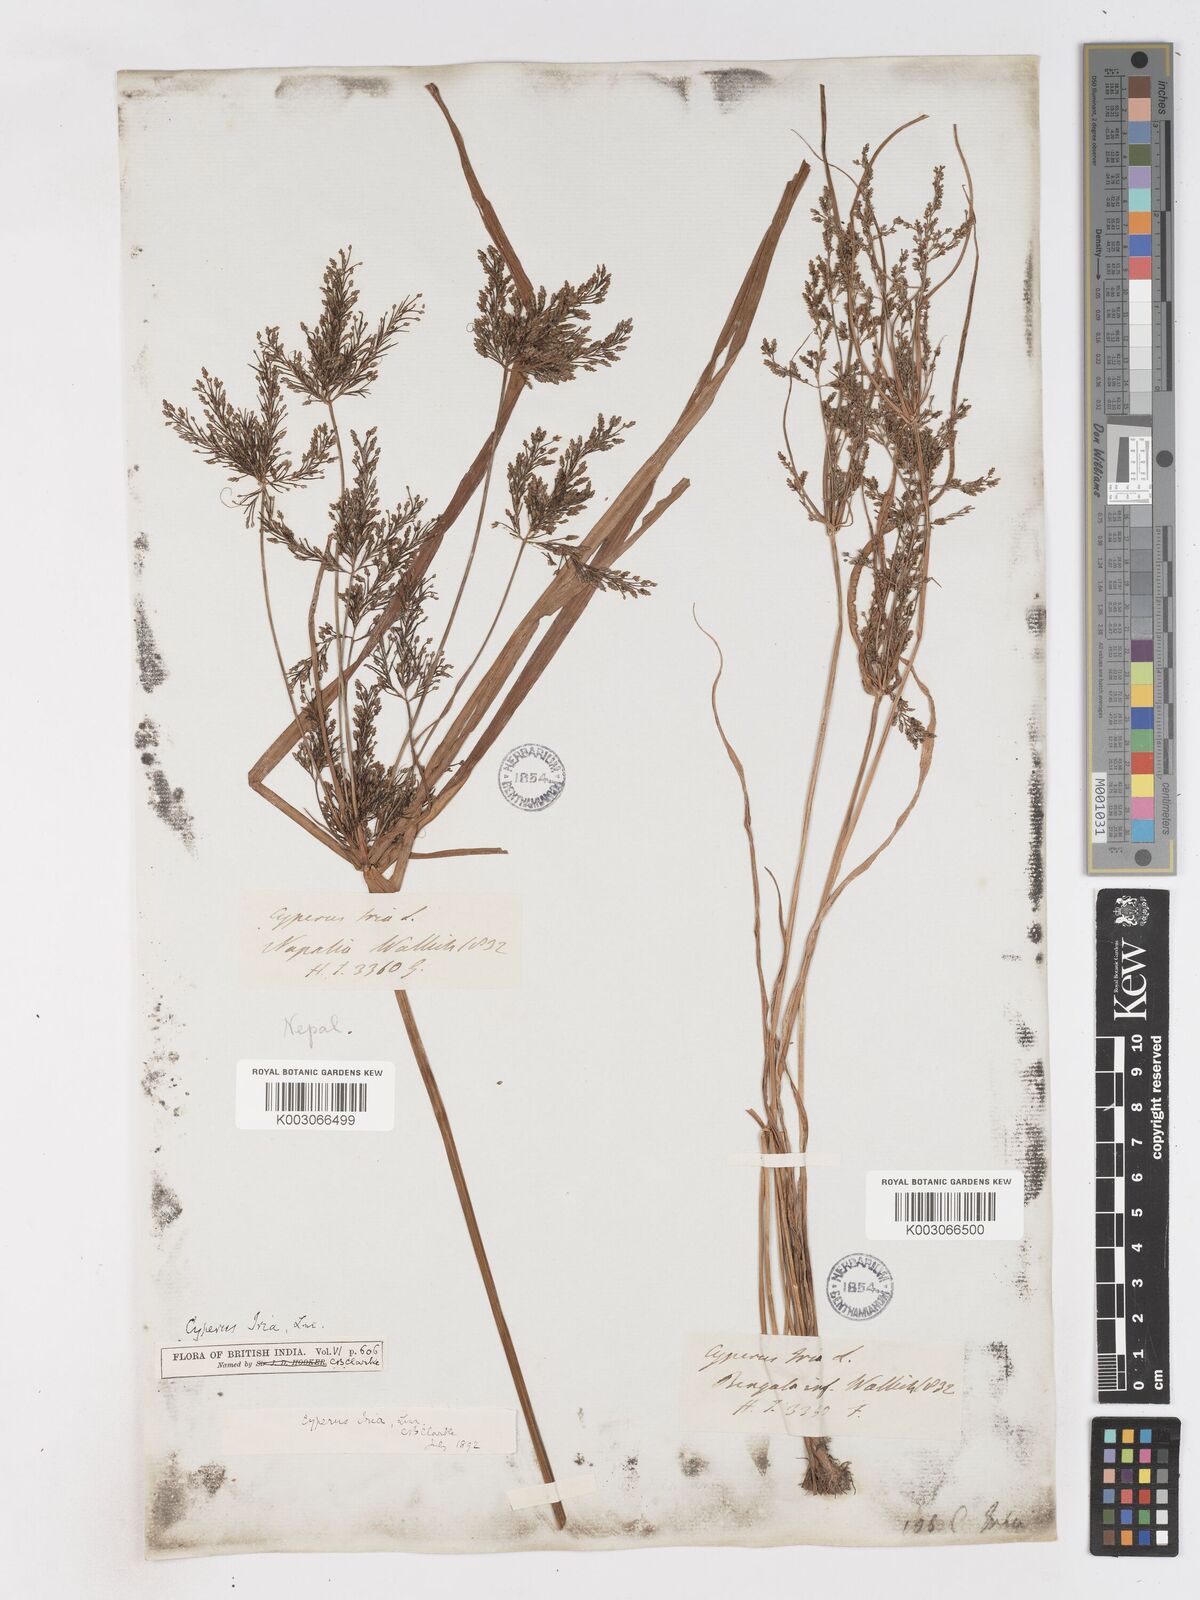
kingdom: Plantae
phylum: Tracheophyta
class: Liliopsida
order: Poales
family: Cyperaceae
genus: Cyperus
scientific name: Cyperus iria
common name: Ricefield flatsedge
